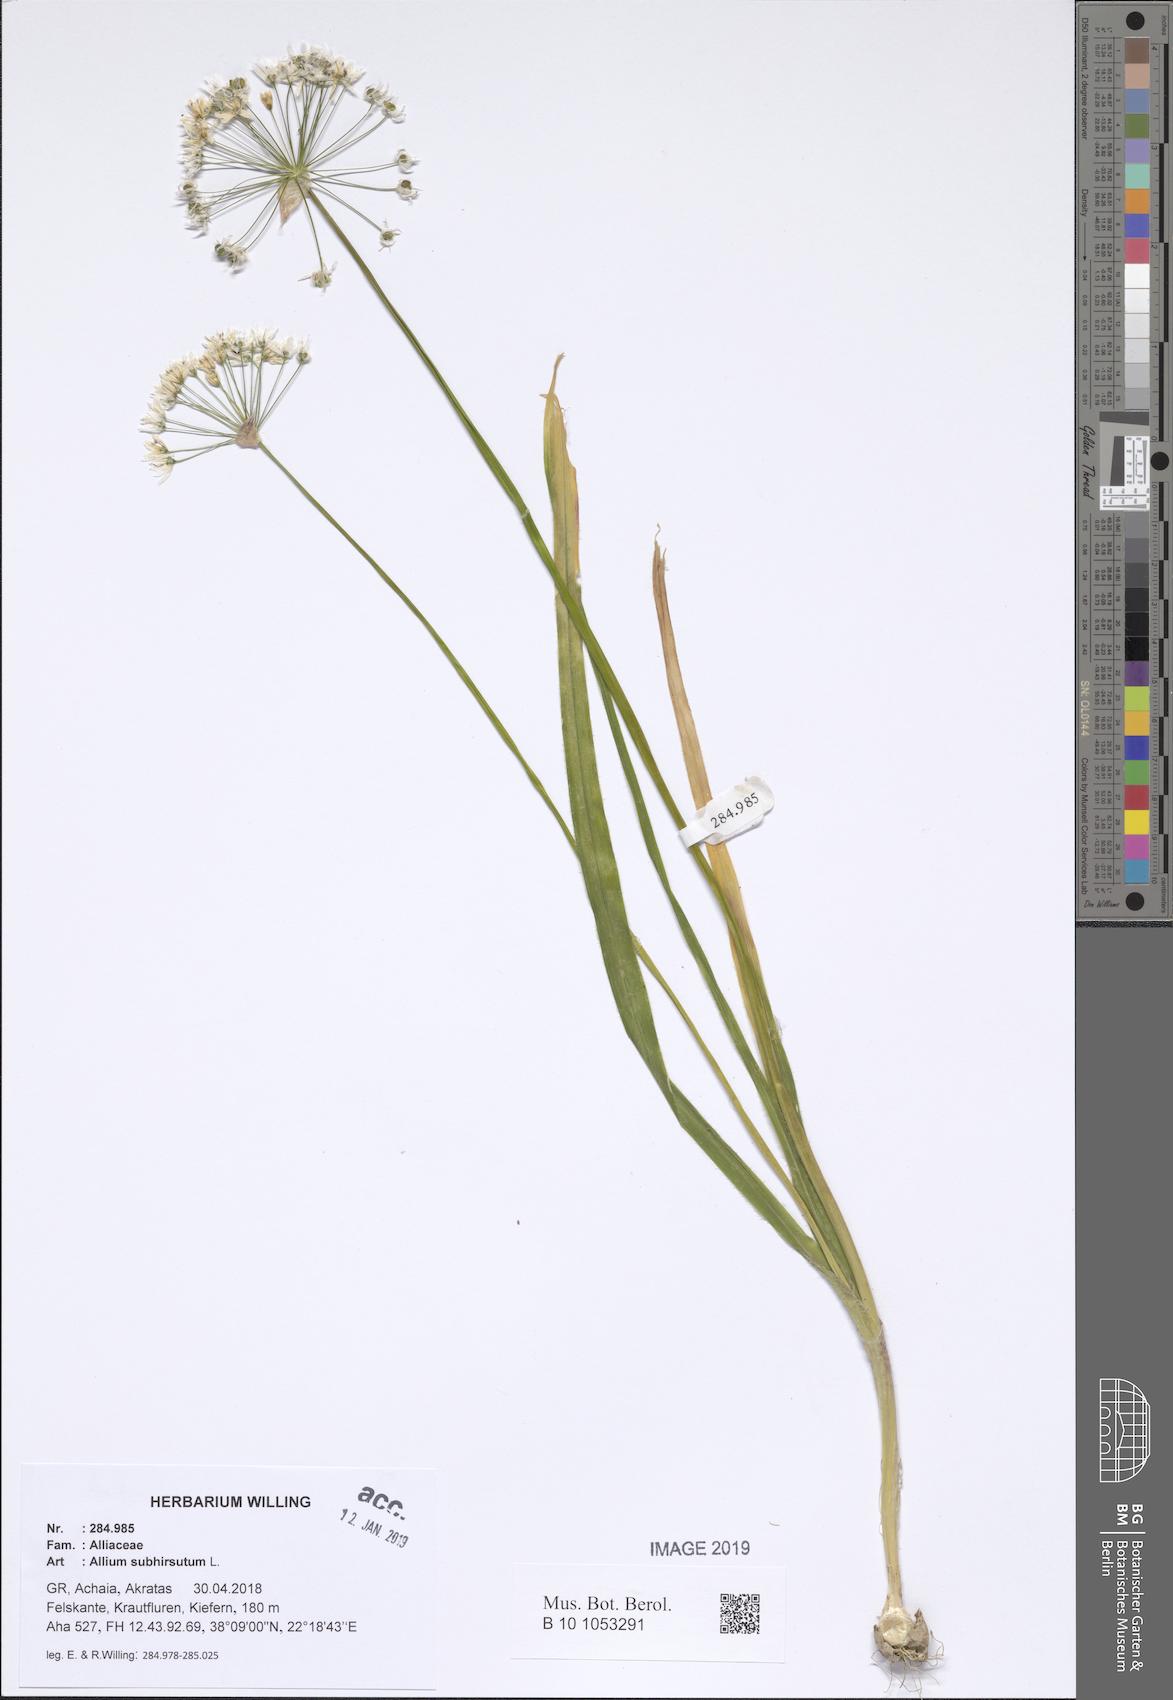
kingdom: Plantae
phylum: Tracheophyta
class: Liliopsida
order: Asparagales
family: Amaryllidaceae
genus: Allium
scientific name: Allium subhirsutum
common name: Hairy garlic
